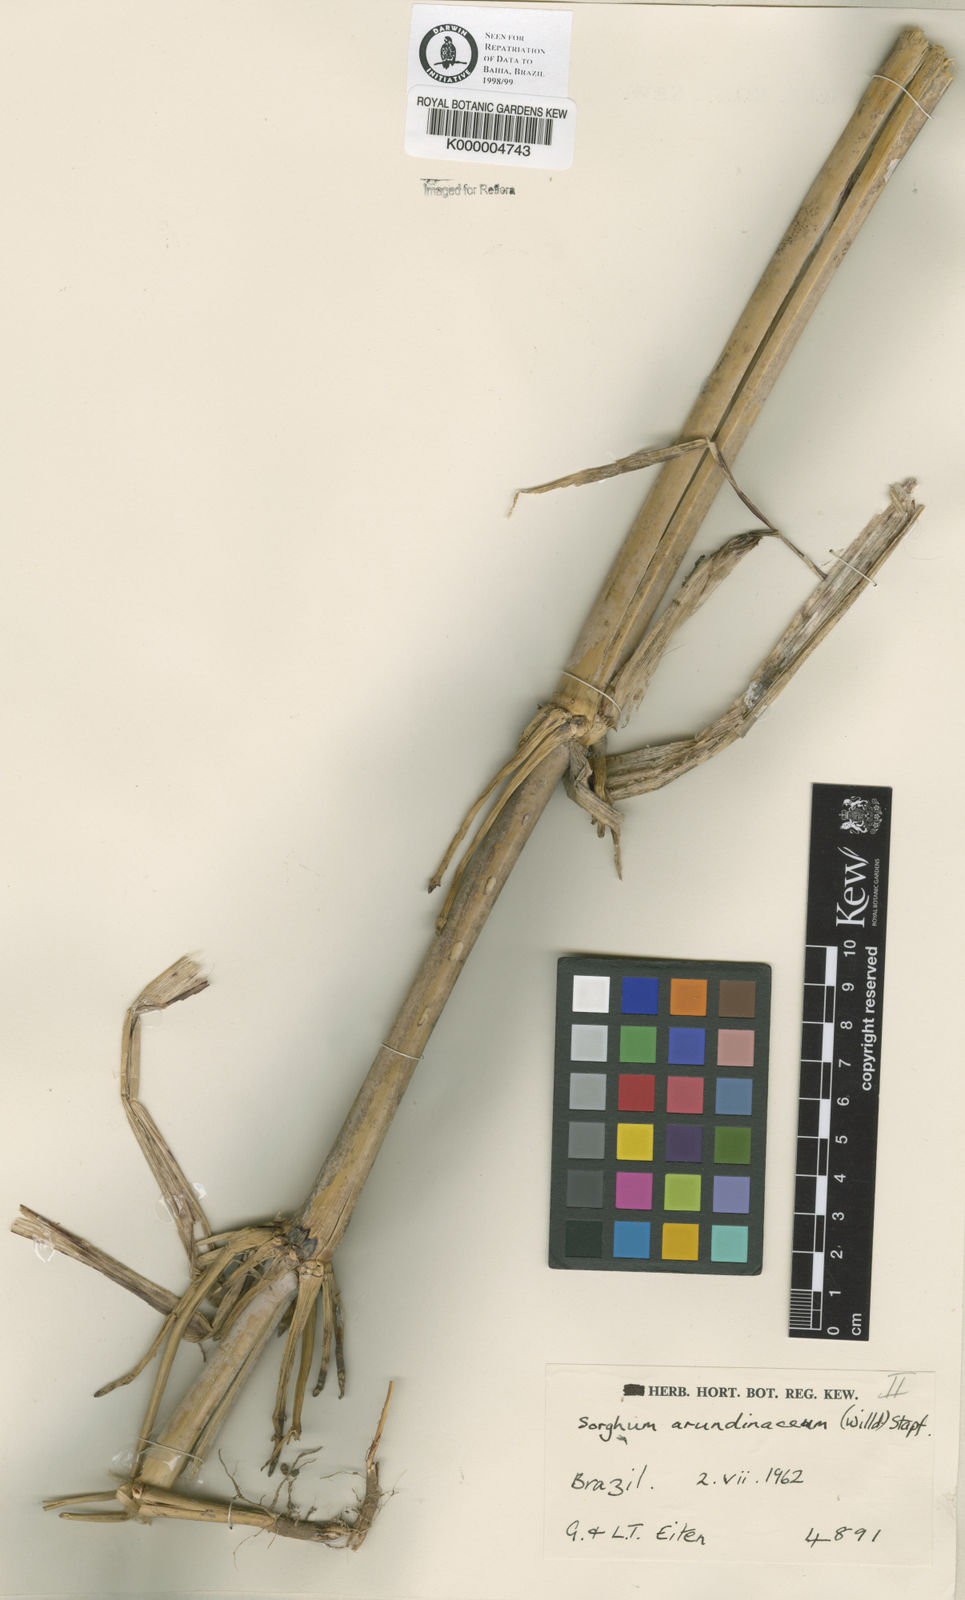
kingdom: Plantae
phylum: Tracheophyta
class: Liliopsida
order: Poales
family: Poaceae
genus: Sorghum
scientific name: Sorghum arundinaceum
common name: Sorghum
